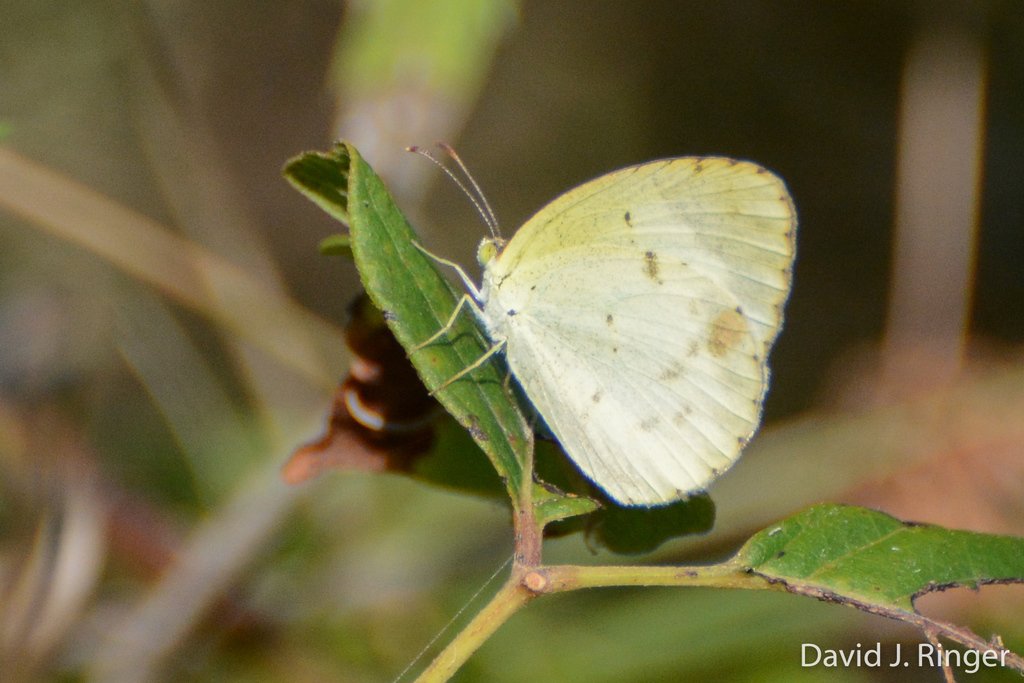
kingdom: Animalia
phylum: Arthropoda
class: Insecta
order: Lepidoptera
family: Pieridae
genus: Pyrisitia
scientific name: Pyrisitia lisa
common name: Little Yellow
